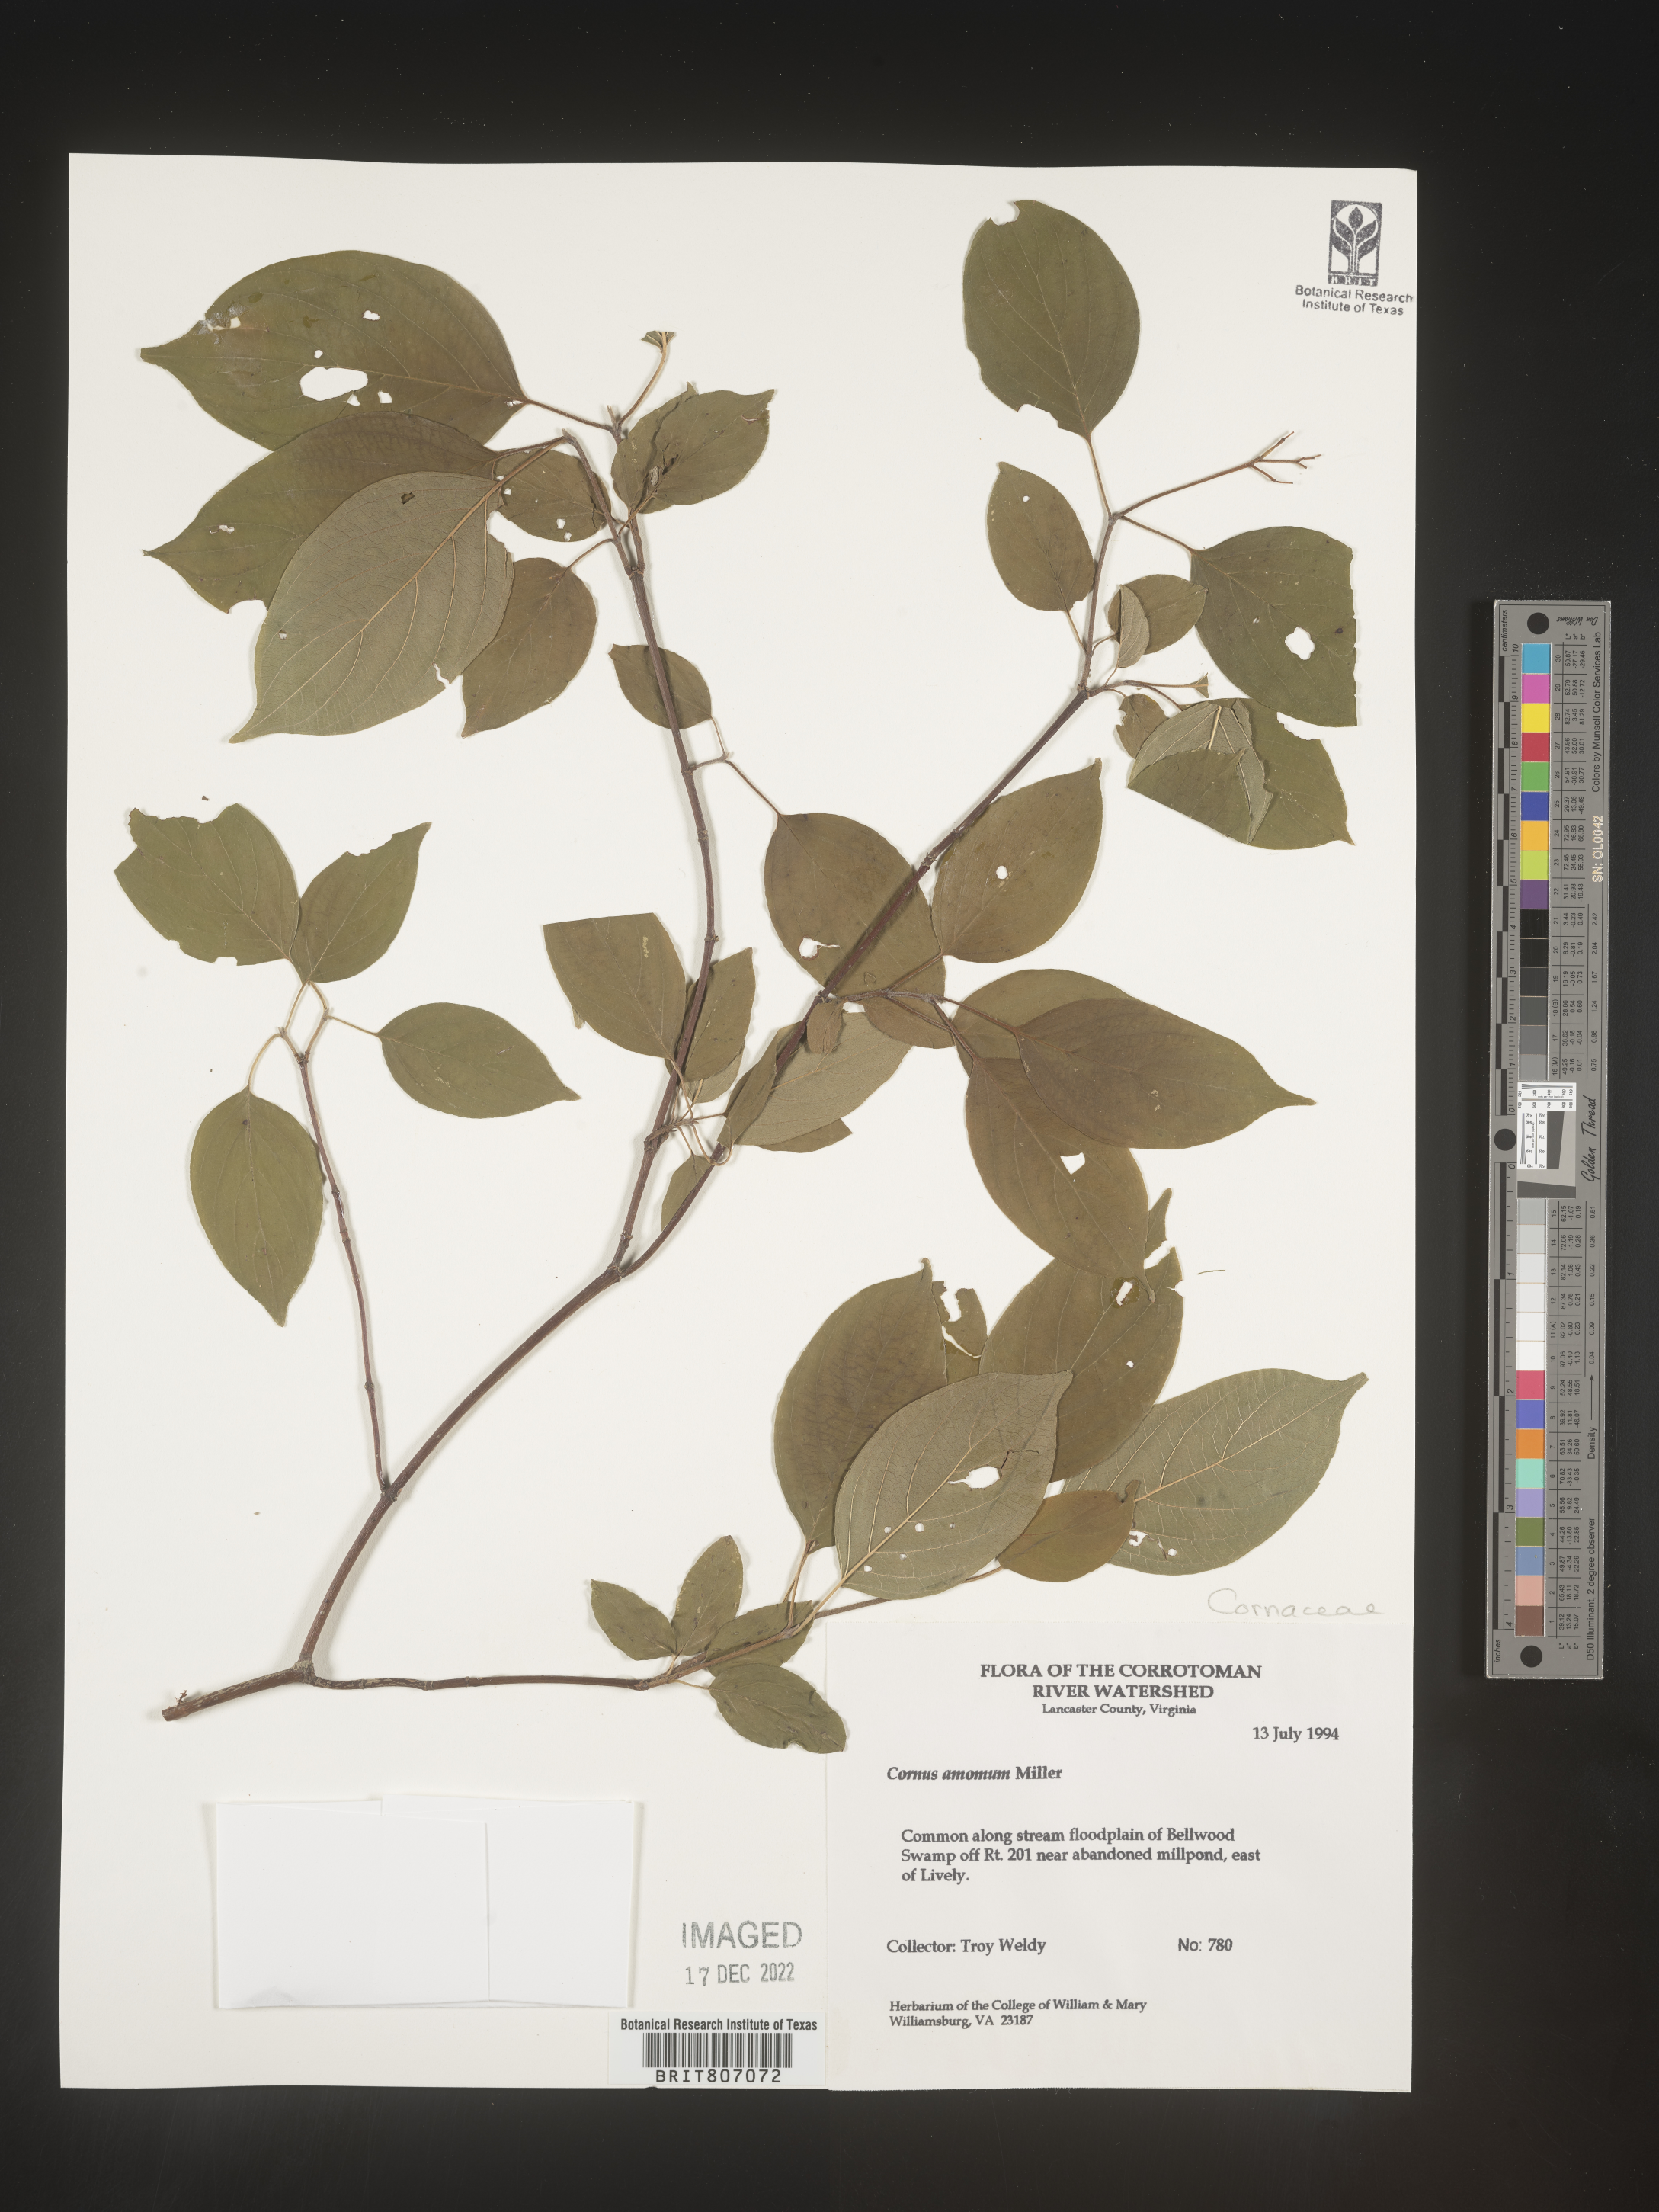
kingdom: Plantae
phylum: Tracheophyta
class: Magnoliopsida
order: Cornales
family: Cornaceae
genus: Cornus
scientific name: Cornus amomum
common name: Silky dogwood
